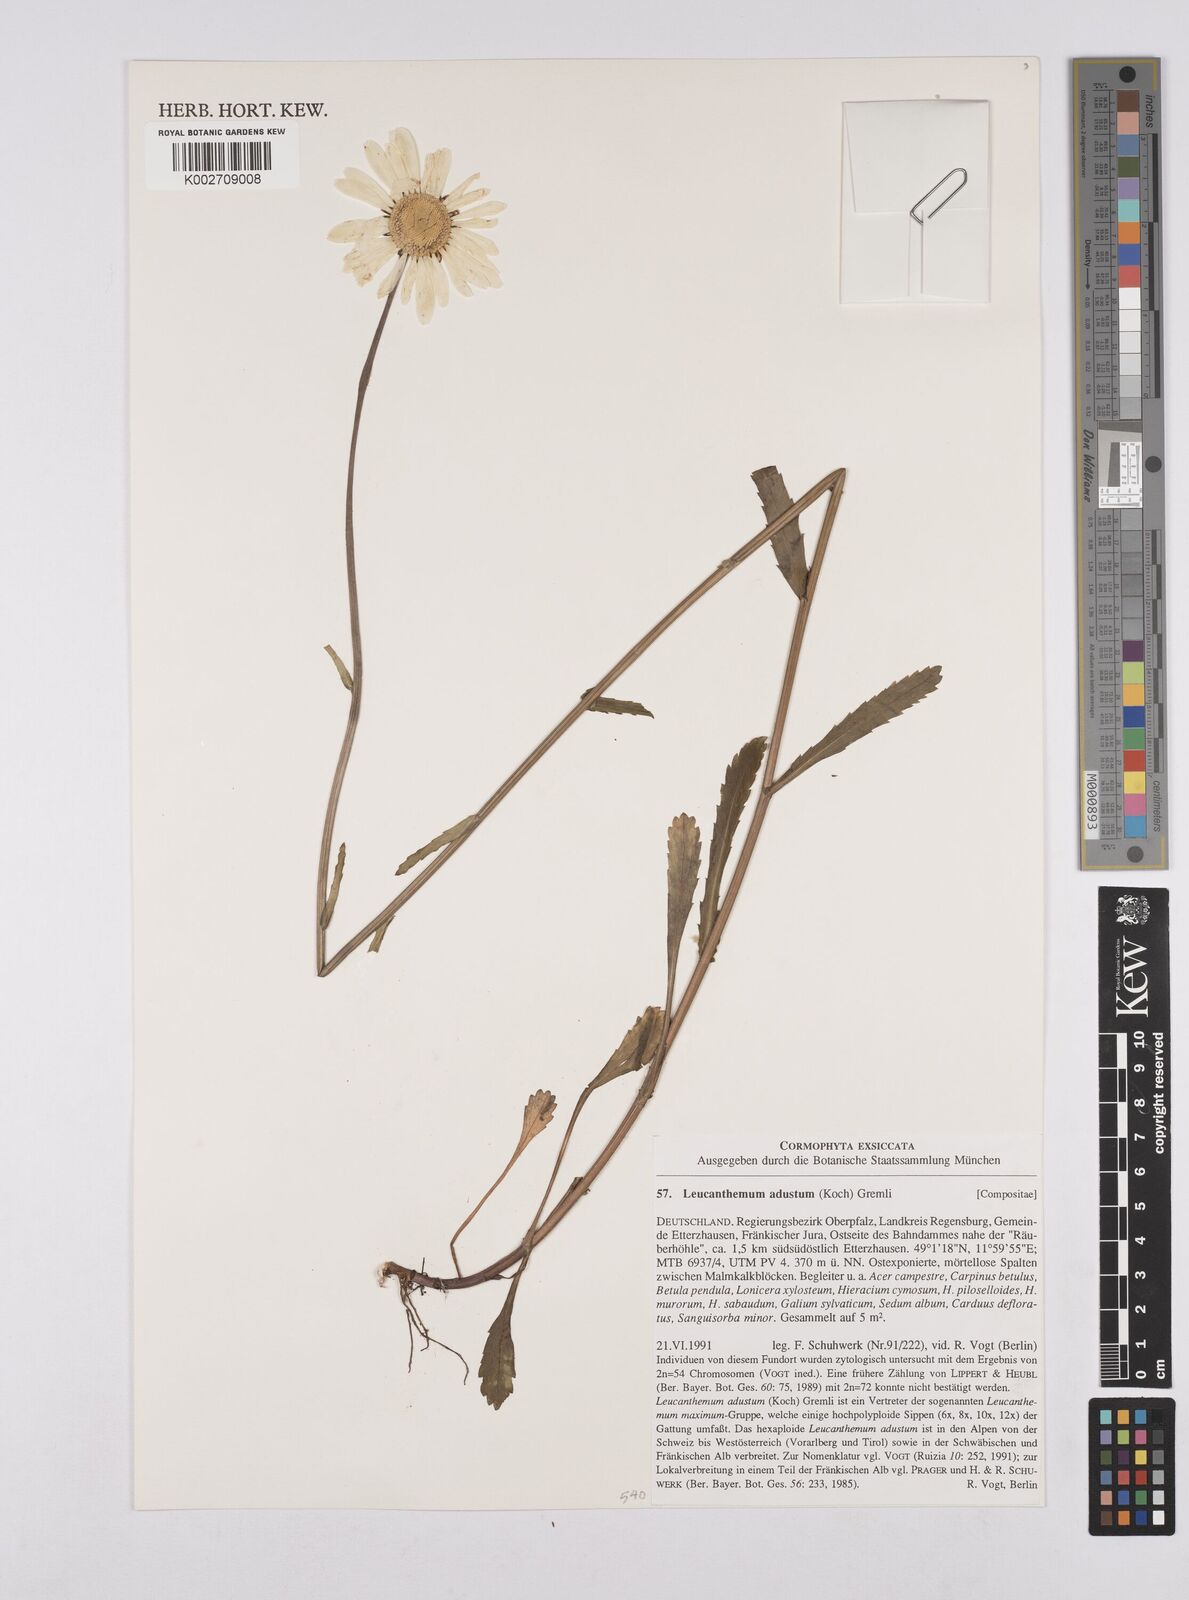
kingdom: Plantae
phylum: Tracheophyta
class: Magnoliopsida
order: Asterales
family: Asteraceae
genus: Leucanthemum
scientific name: Leucanthemum adustum
